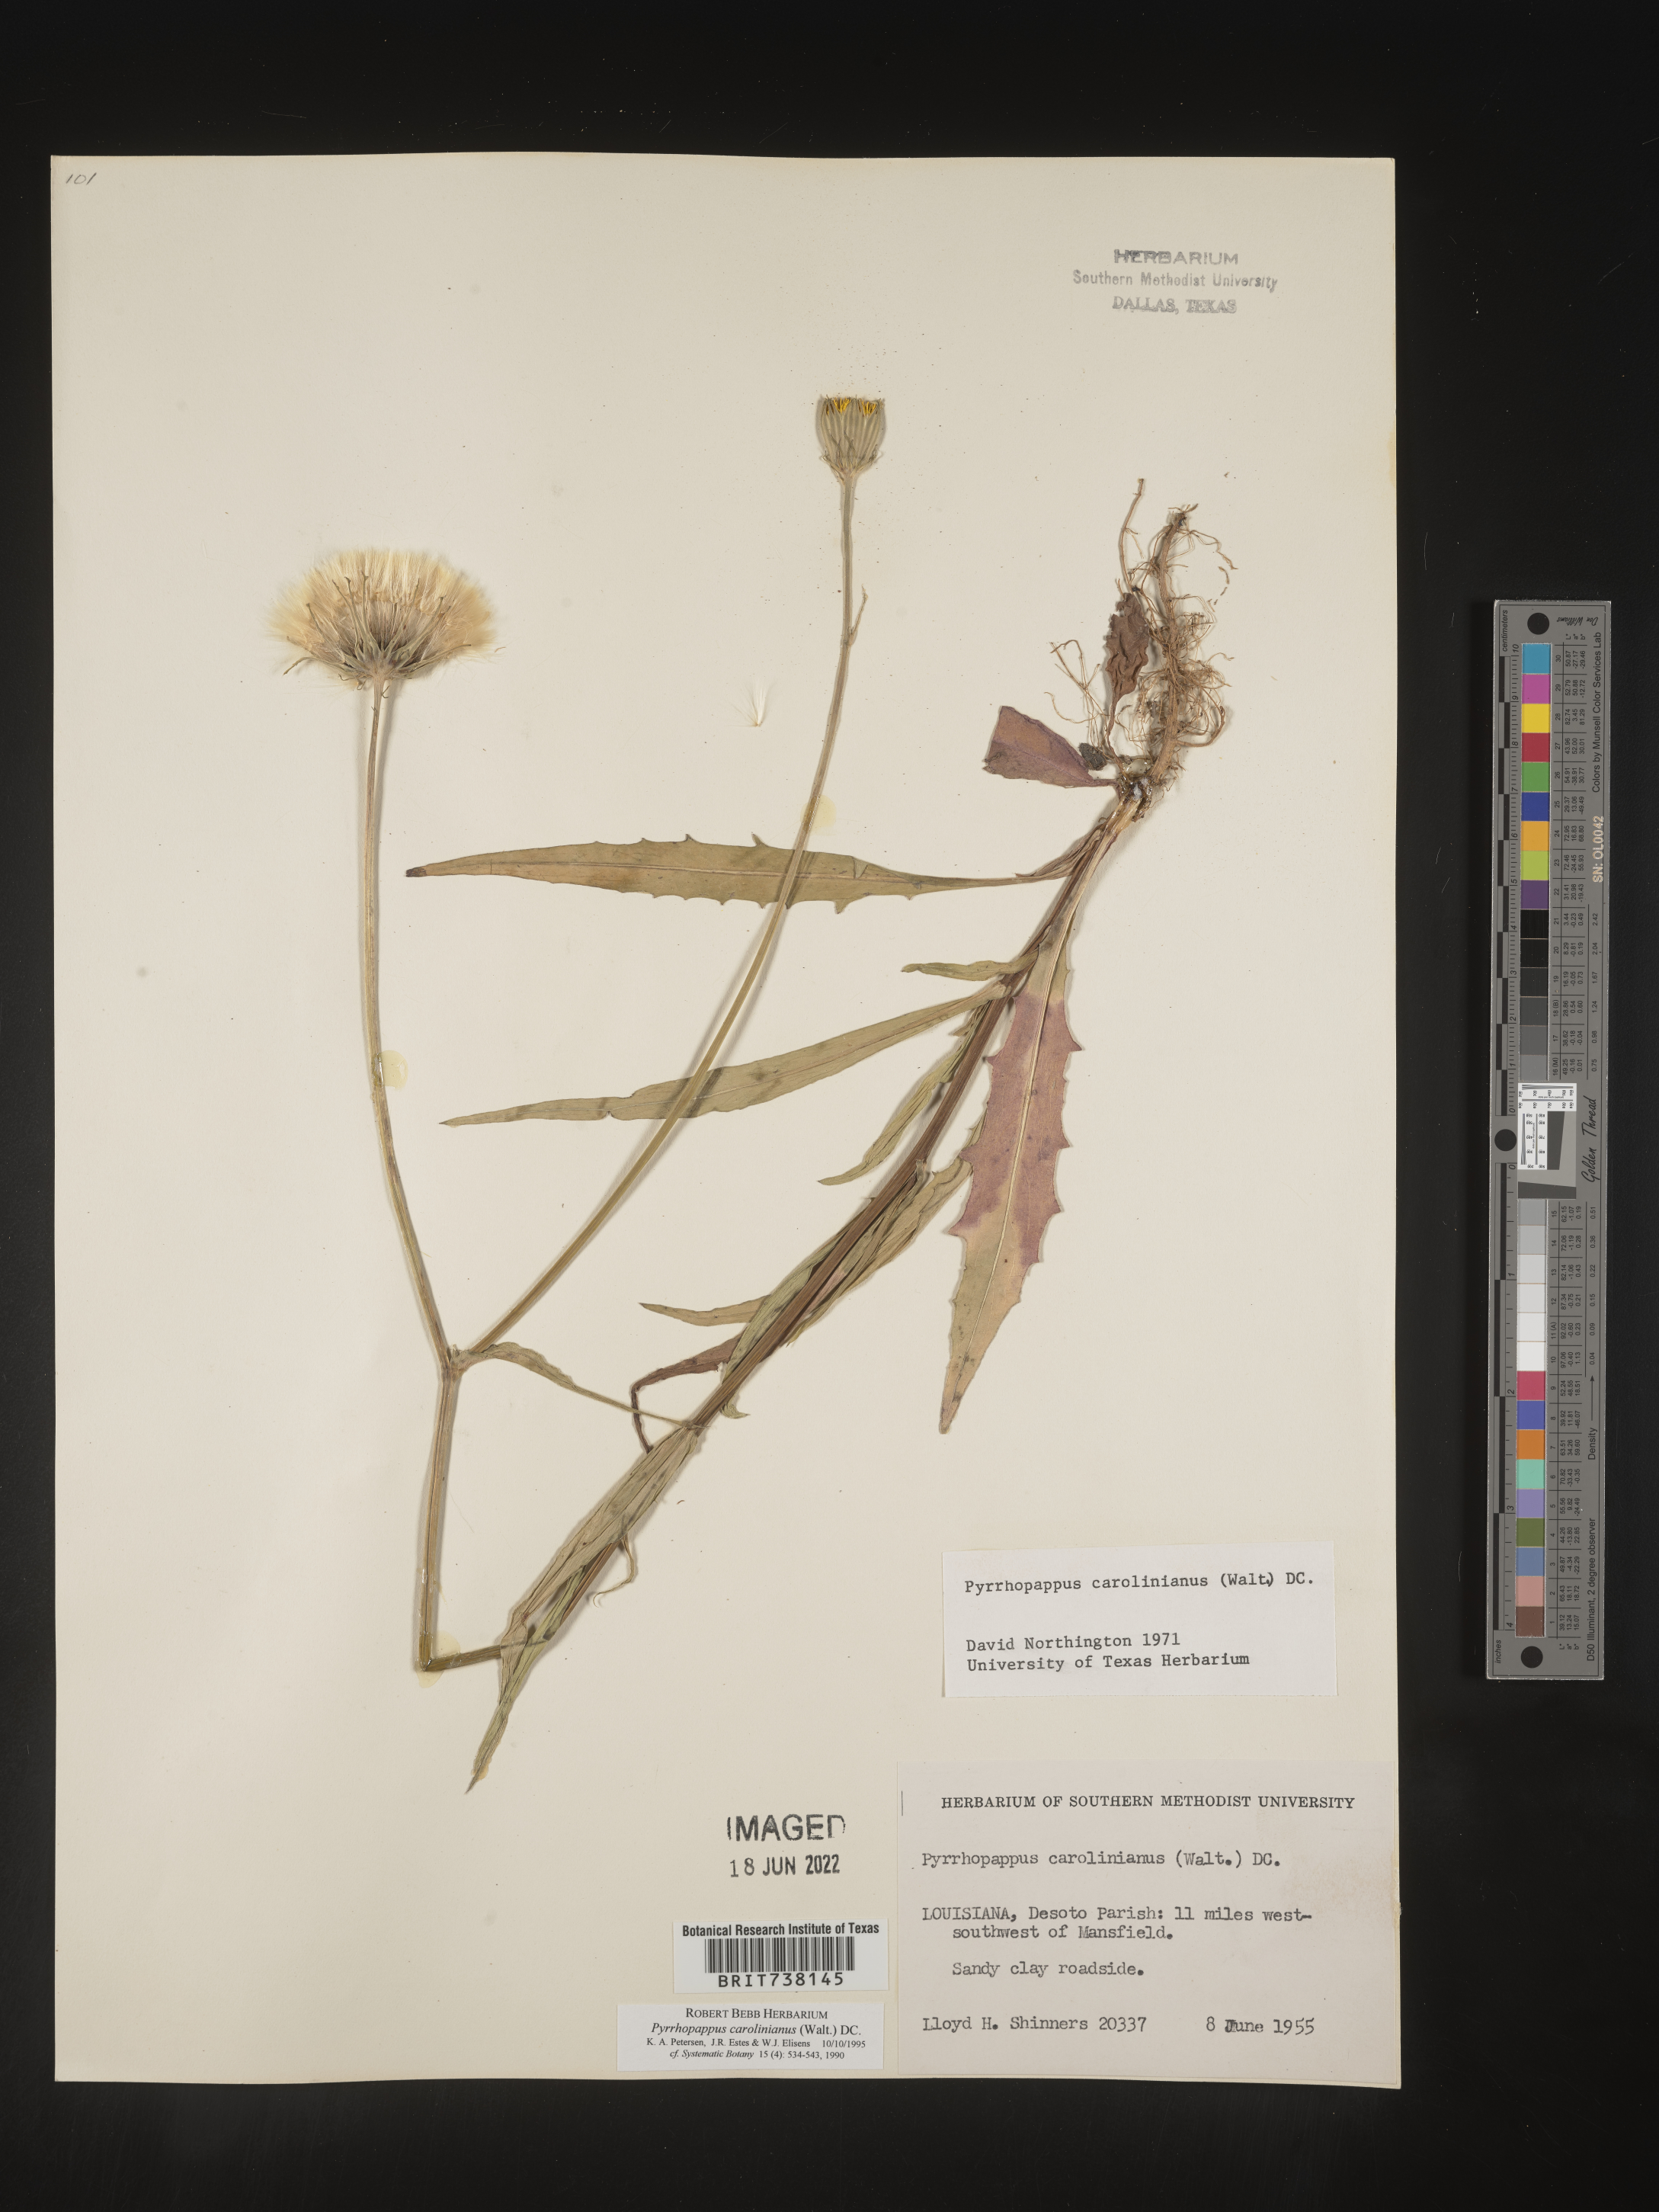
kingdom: Plantae
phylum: Tracheophyta
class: Magnoliopsida
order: Asterales
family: Asteraceae
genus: Pyrrhopappus
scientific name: Pyrrhopappus carolinianus
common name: Carolina desert-chicory
